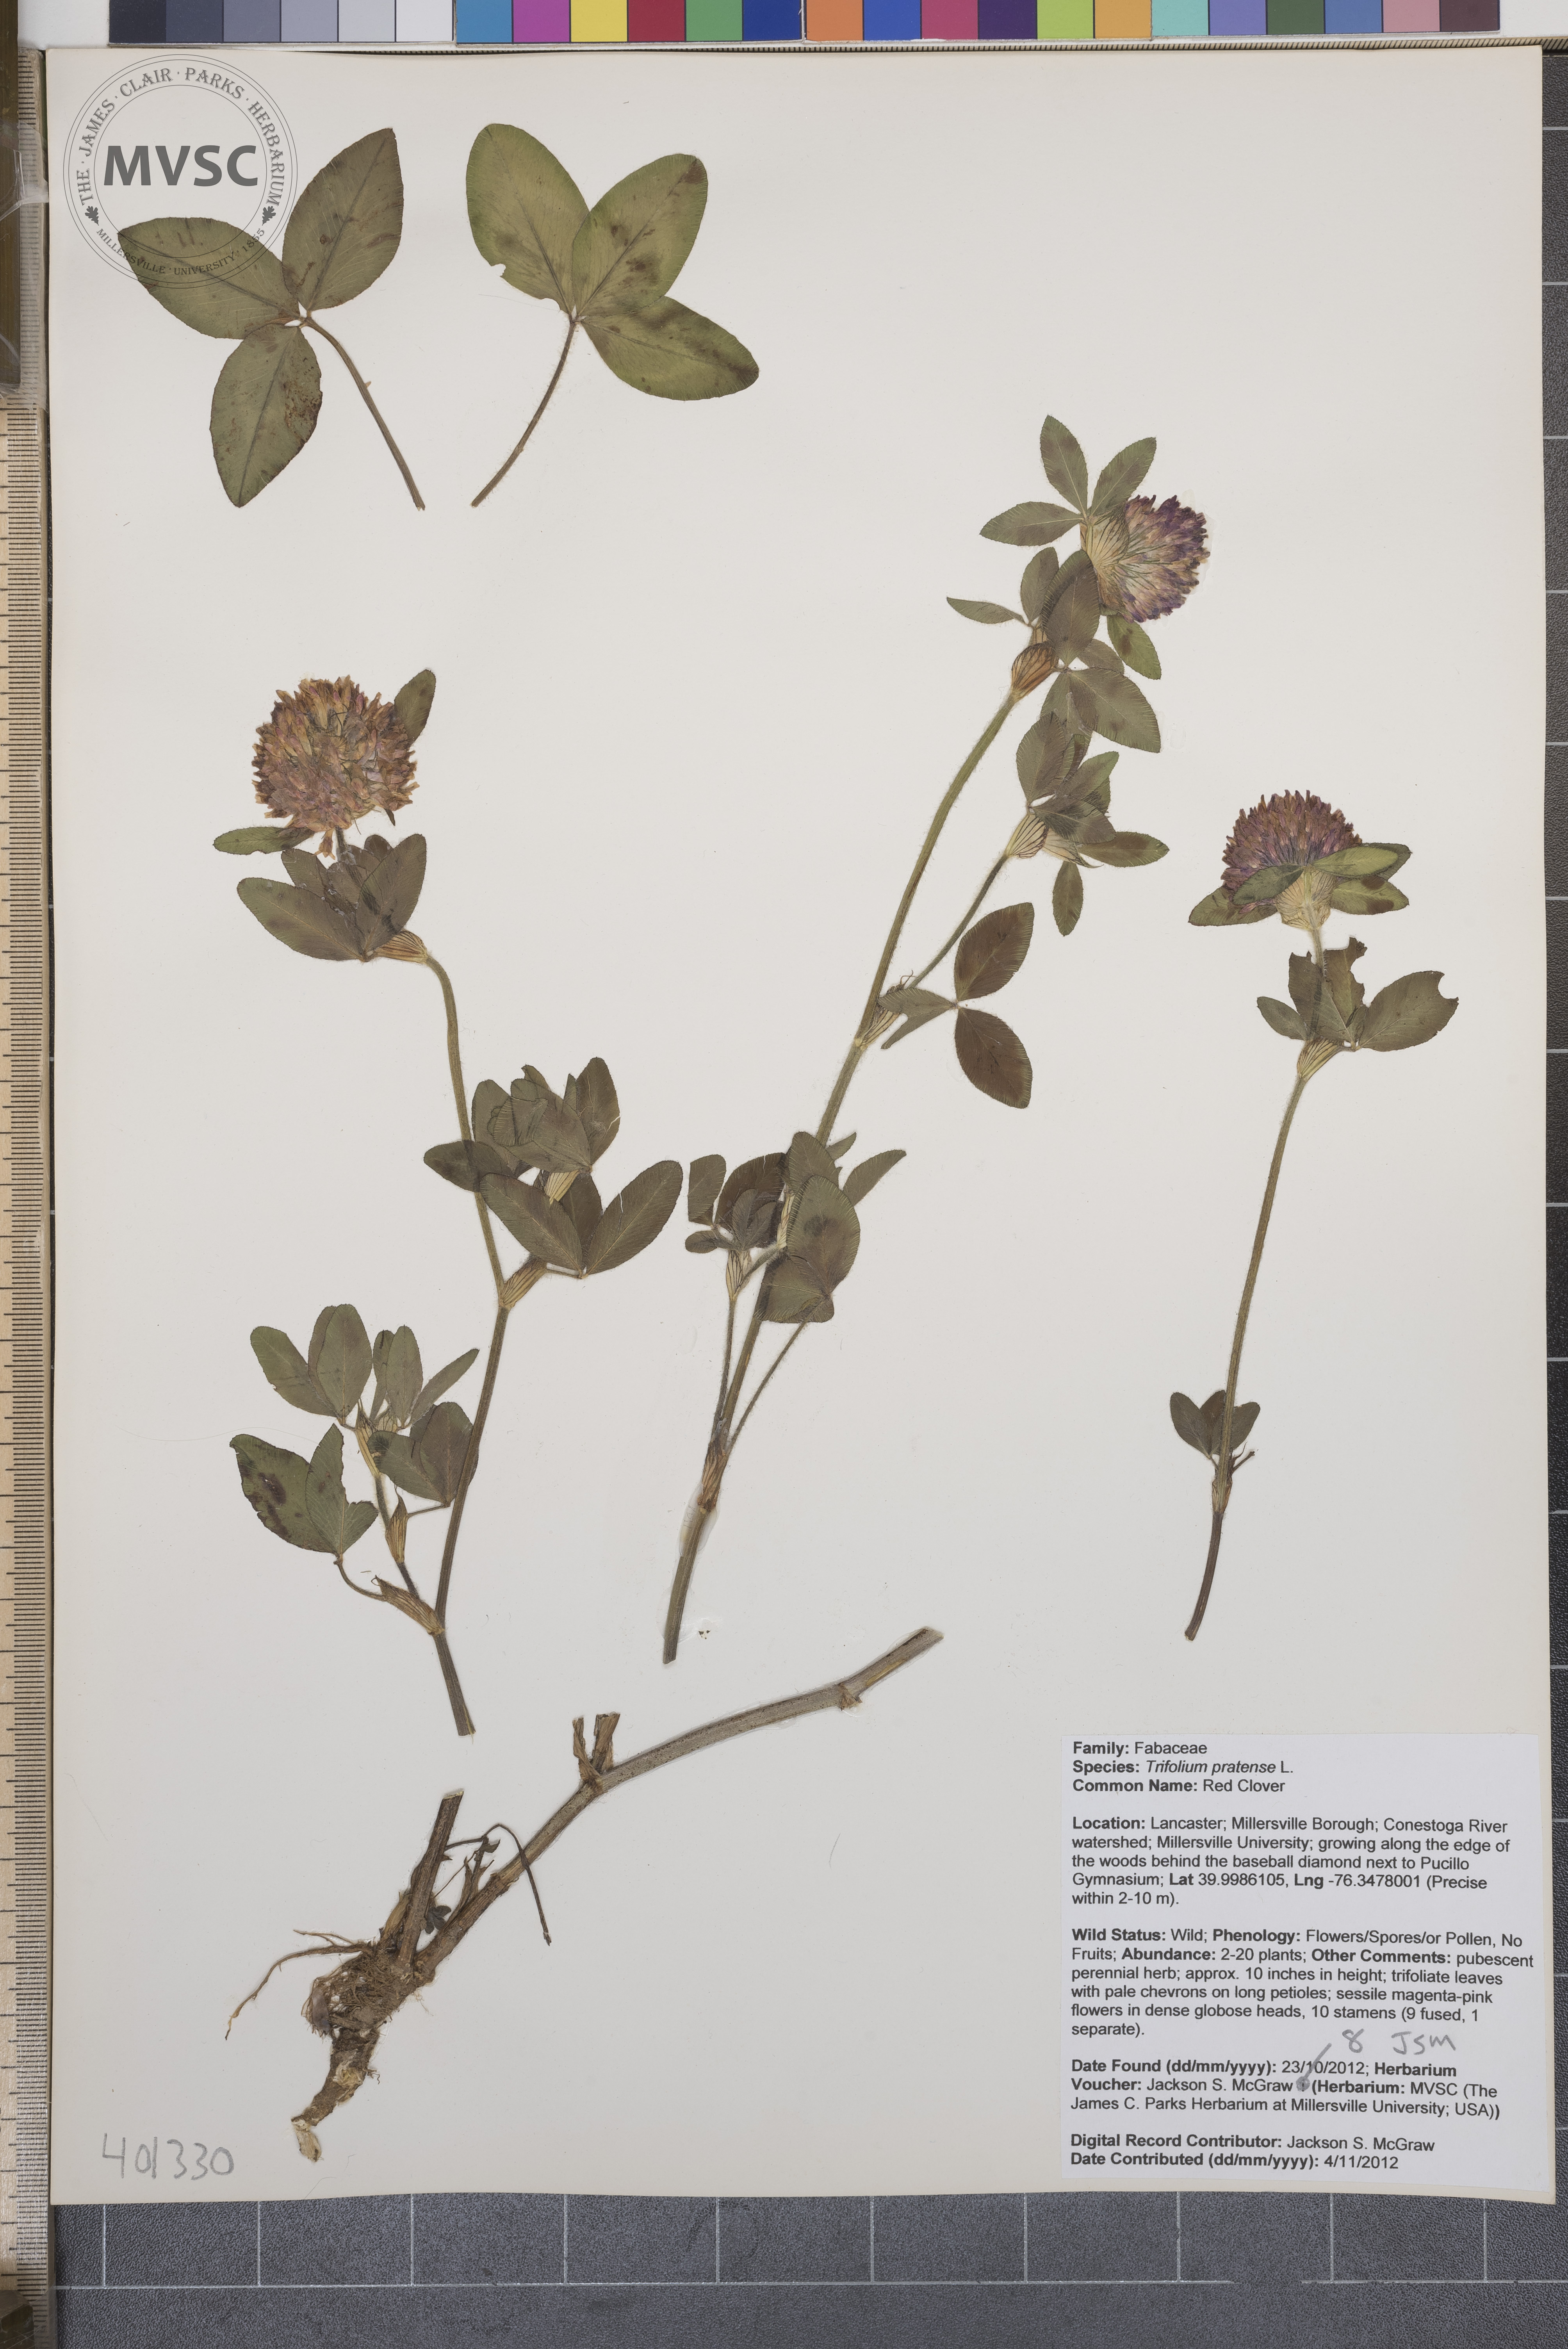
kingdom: Plantae
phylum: Tracheophyta
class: Magnoliopsida
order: Fabales
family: Fabaceae
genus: Trifolium
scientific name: Trifolium pratense
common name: Red Clover
